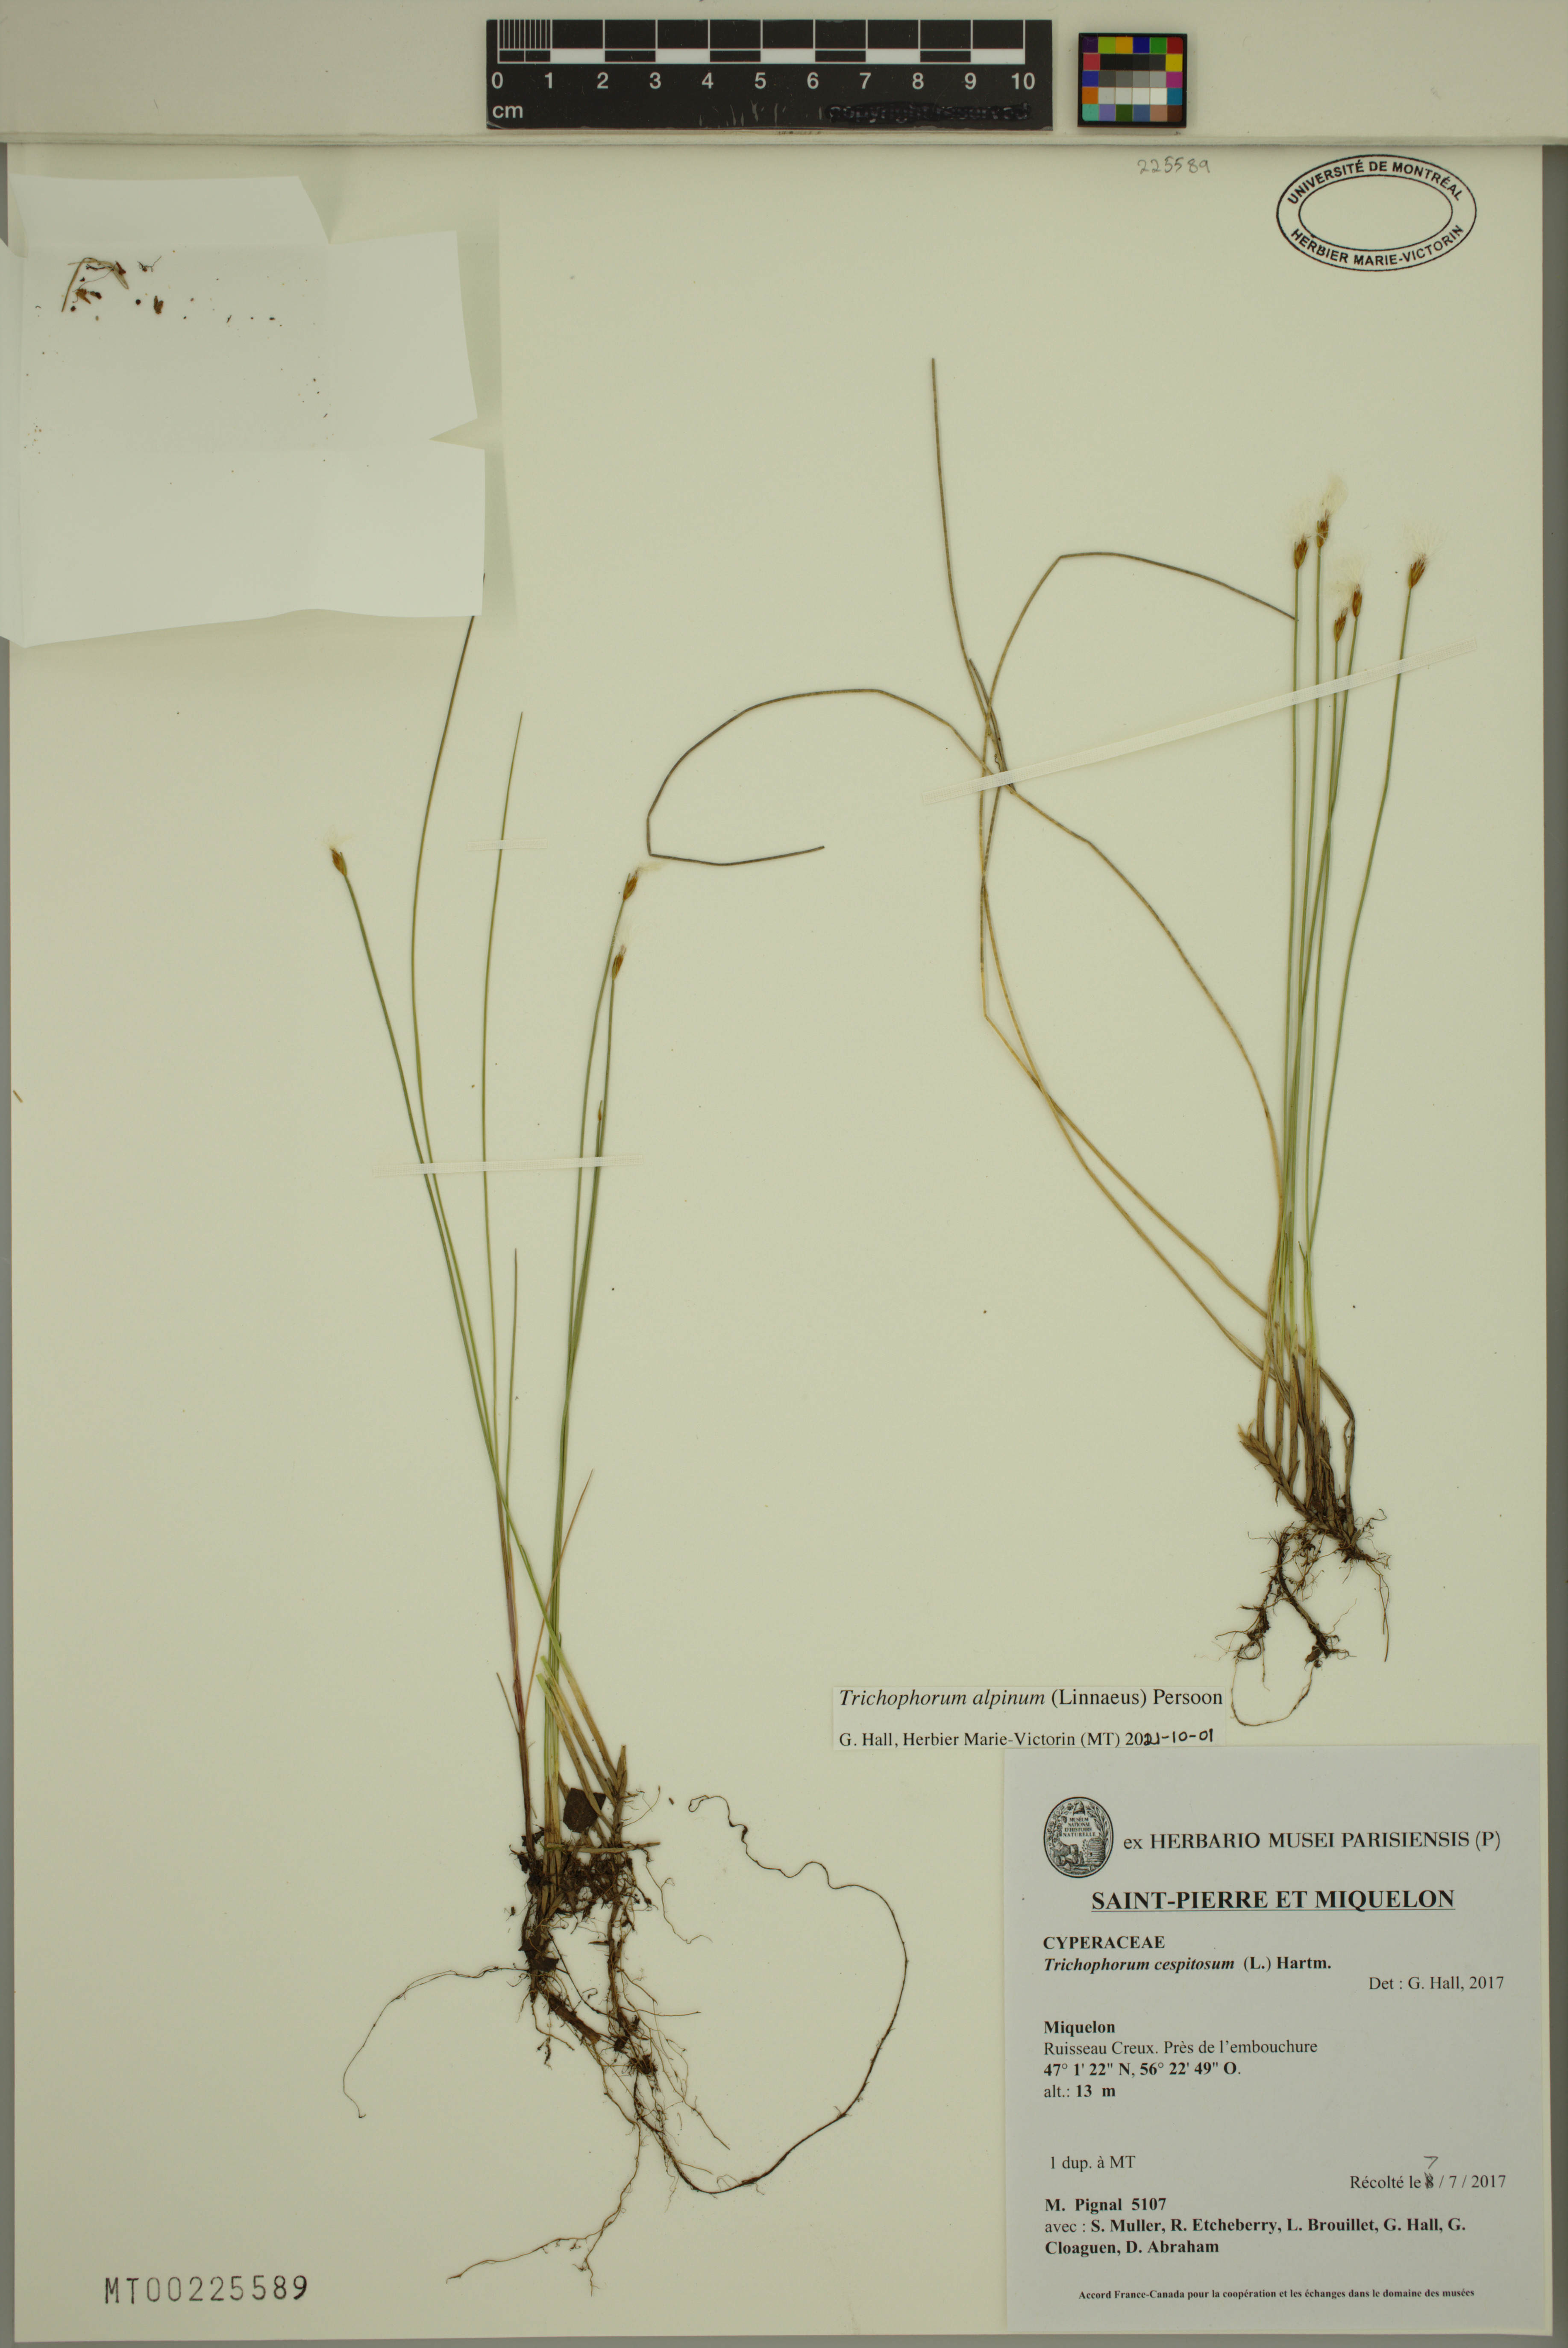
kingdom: Plantae
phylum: Tracheophyta
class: Liliopsida
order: Poales
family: Cyperaceae
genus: Trichophorum
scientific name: Trichophorum alpinum
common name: Alpine bulrush
